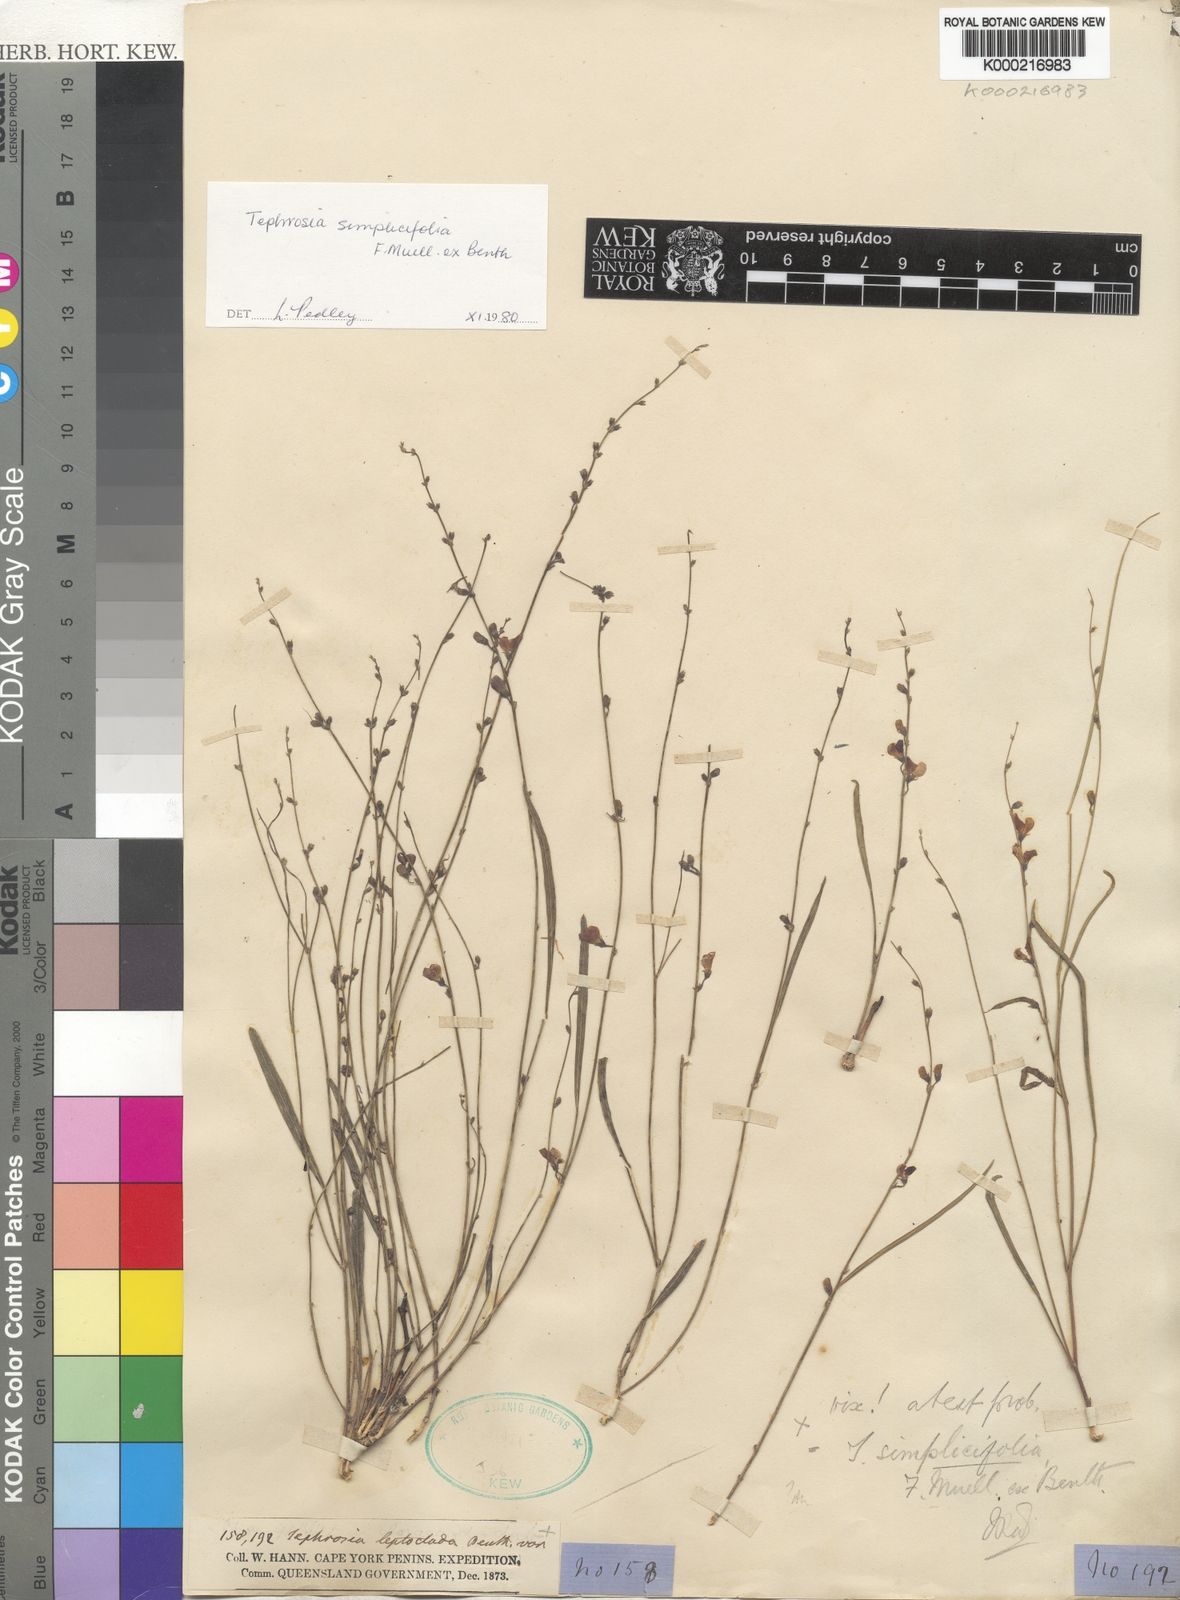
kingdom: Plantae
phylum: Tracheophyta
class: Magnoliopsida
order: Fabales
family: Fabaceae
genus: Tephrosia
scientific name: Tephrosia simplicifolia
